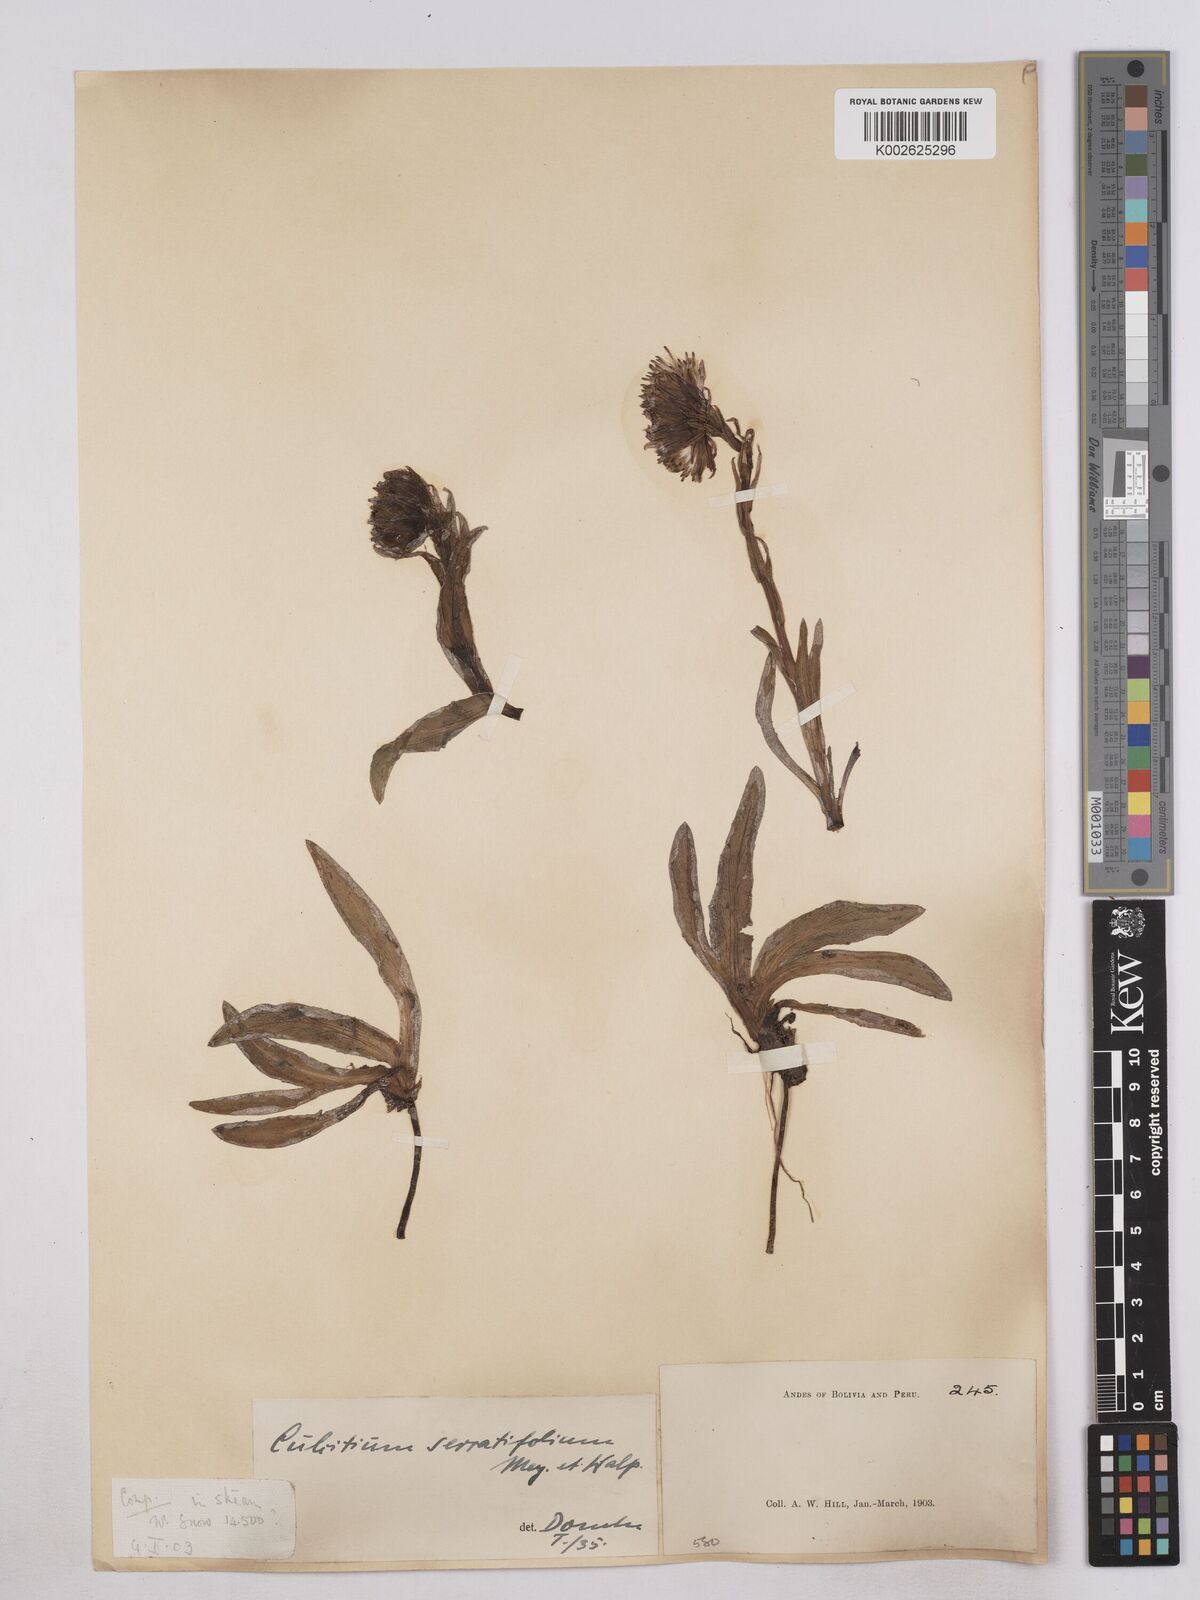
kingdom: Plantae
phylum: Tracheophyta
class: Magnoliopsida
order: Asterales
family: Asteraceae
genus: Senecio
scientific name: Senecio serratifolius
